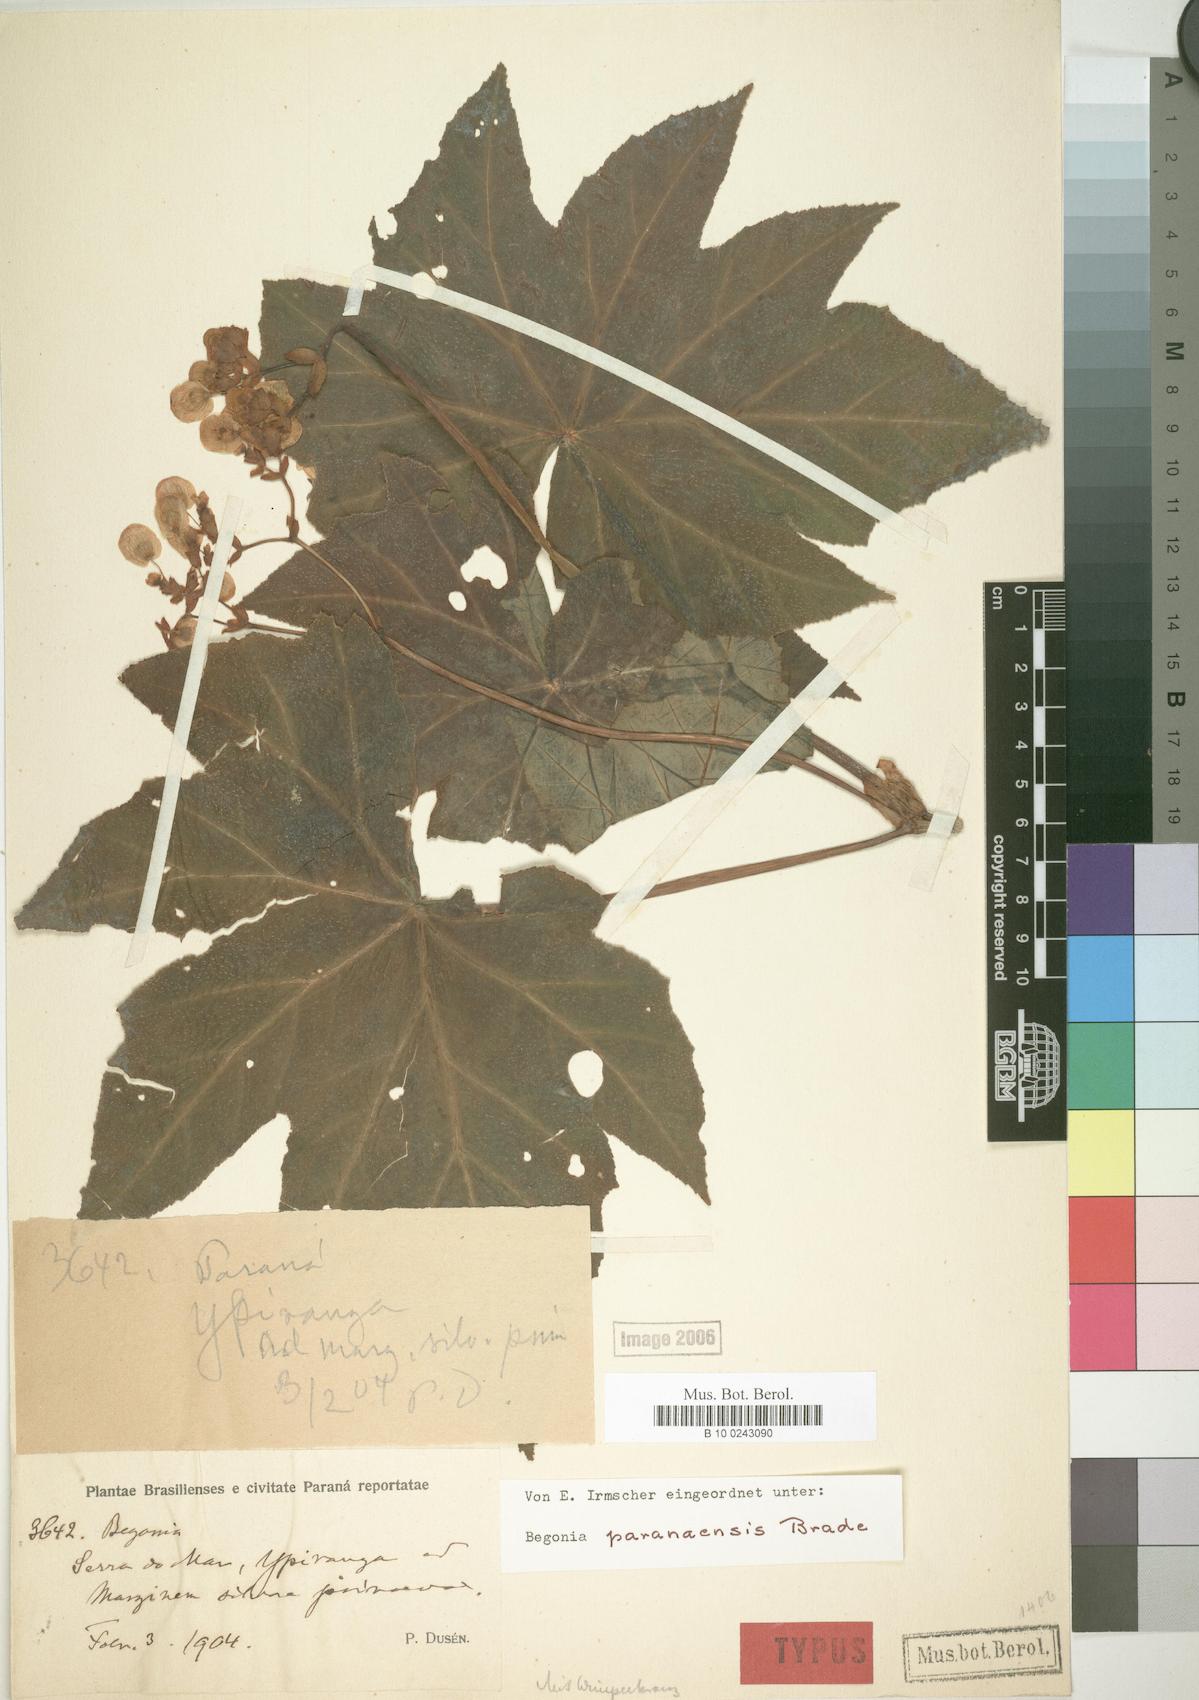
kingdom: Plantae
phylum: Tracheophyta
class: Magnoliopsida
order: Cucurbitales
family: Begoniaceae
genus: Begonia
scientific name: Begonia paranaensis
